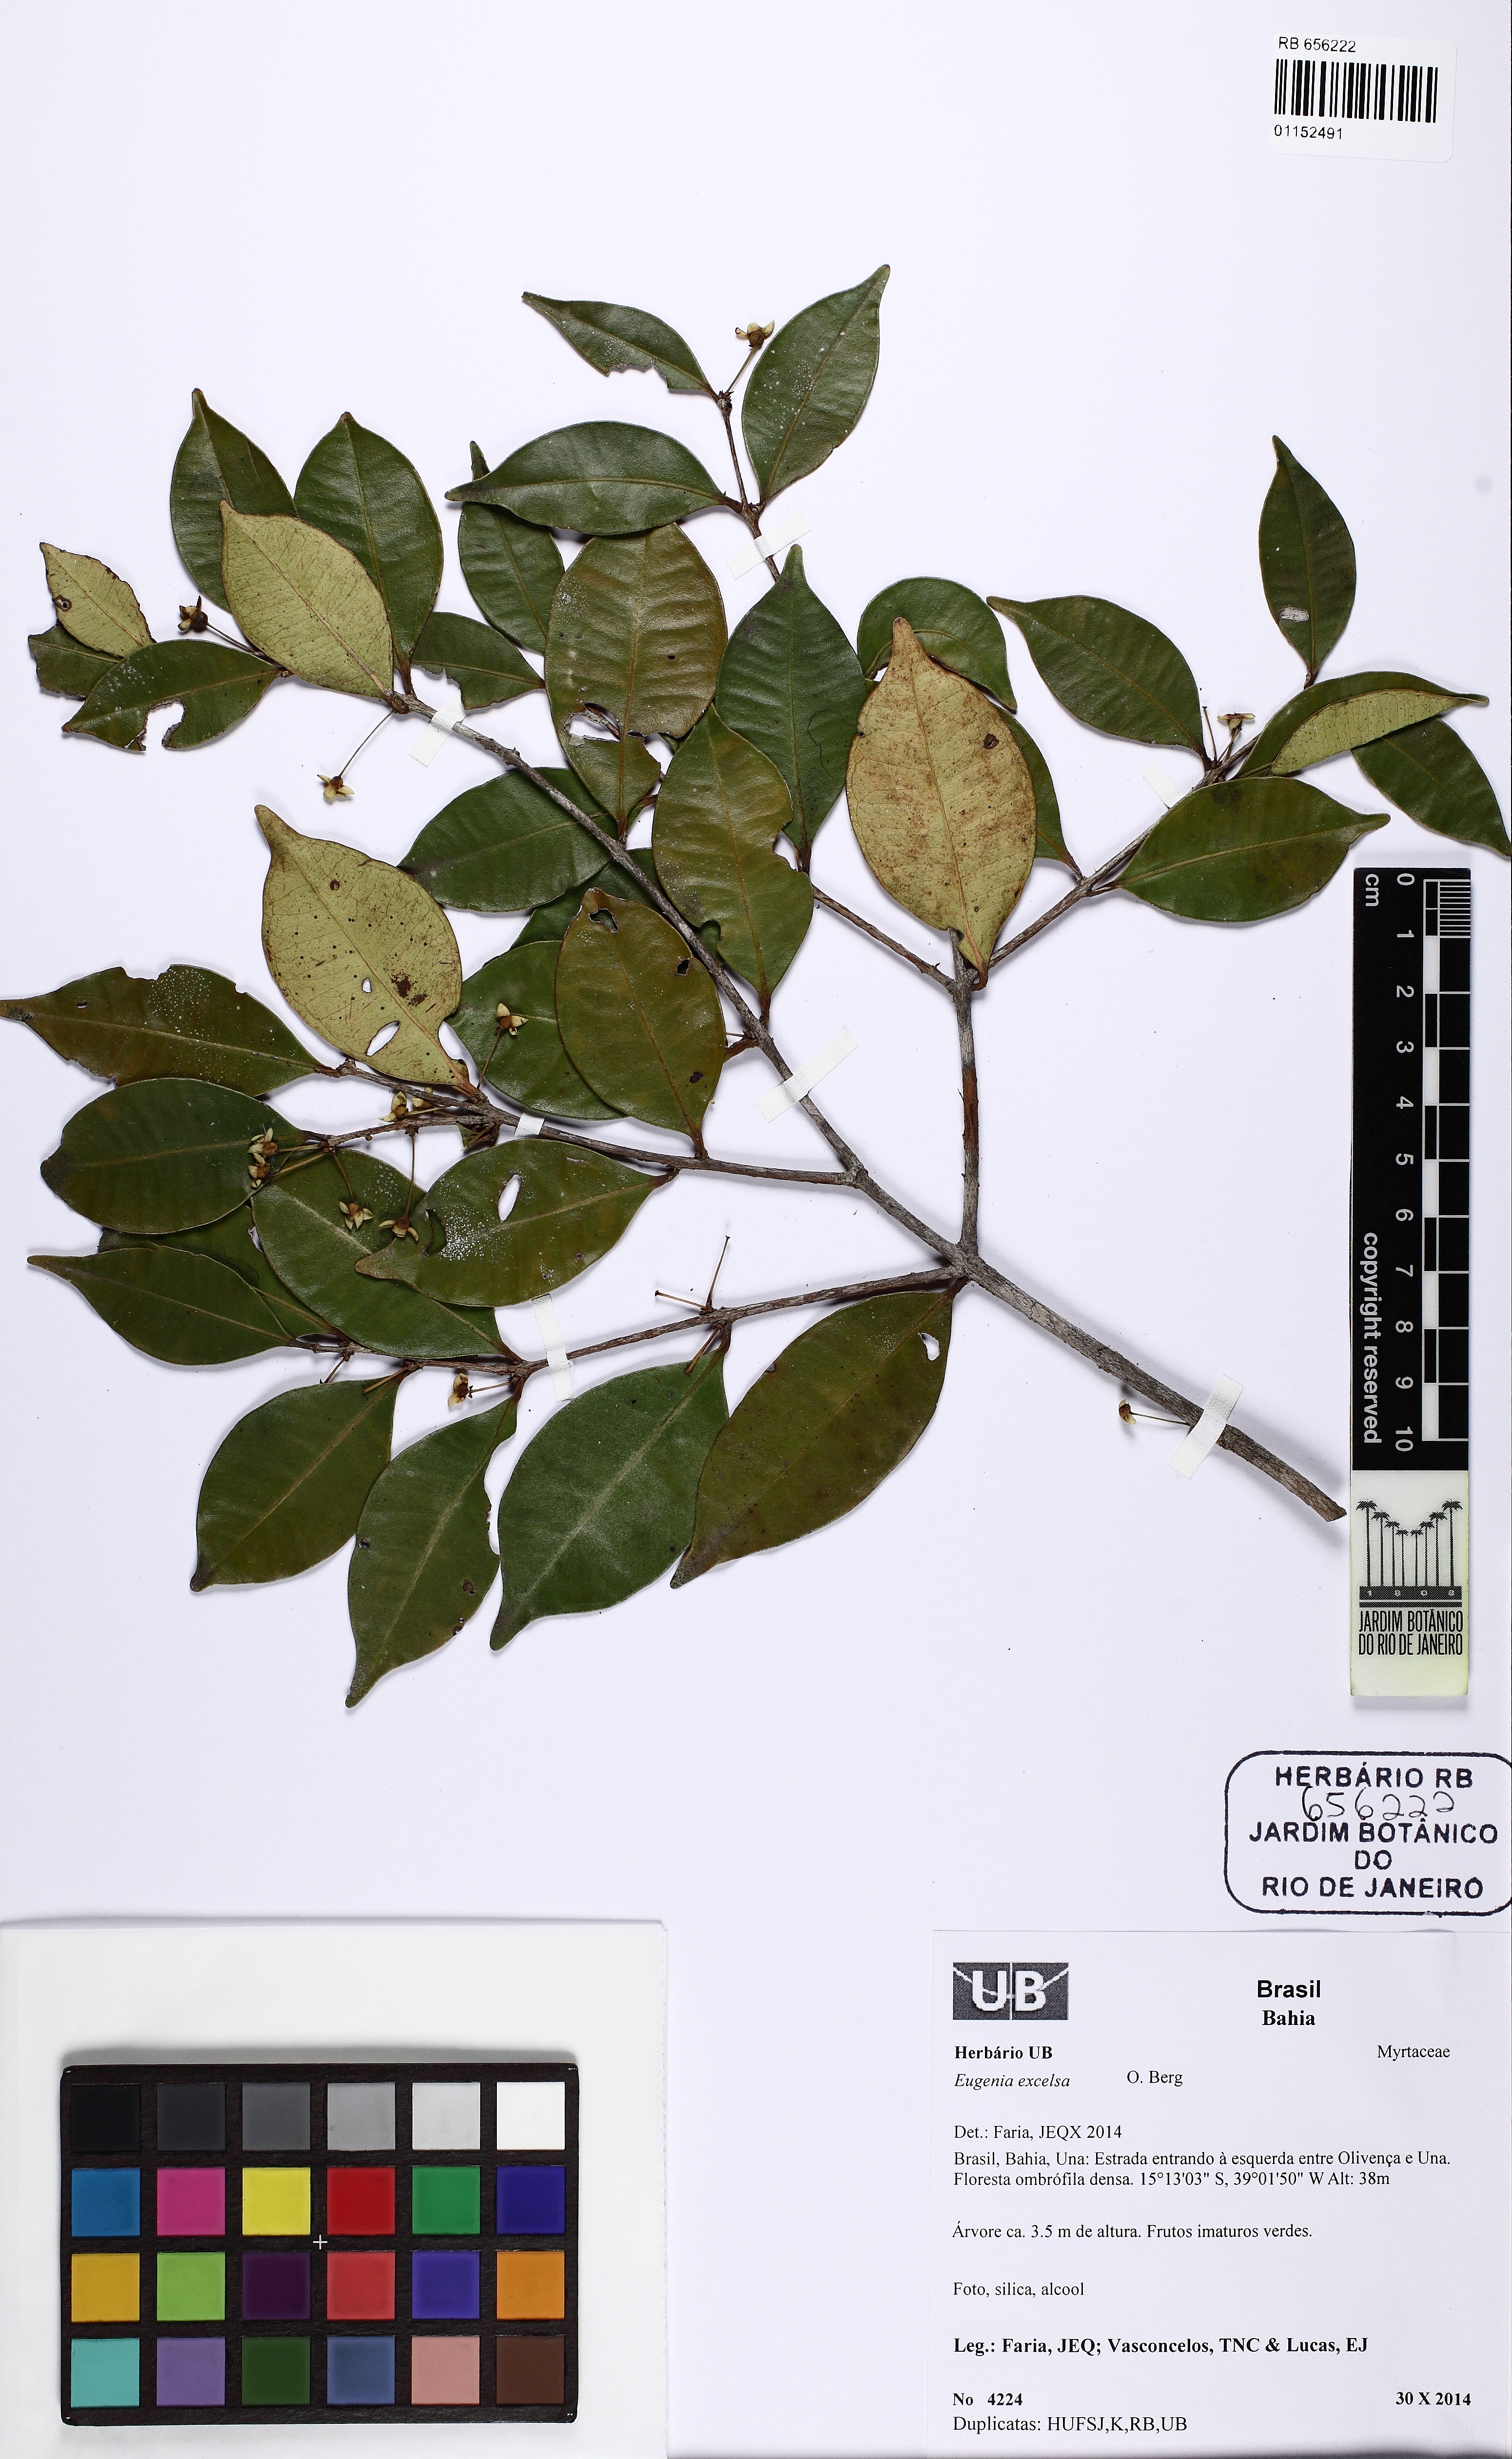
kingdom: Plantae
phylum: Tracheophyta
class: Magnoliopsida
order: Myrtales
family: Myrtaceae
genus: Eugenia
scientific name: Eugenia excelsa
